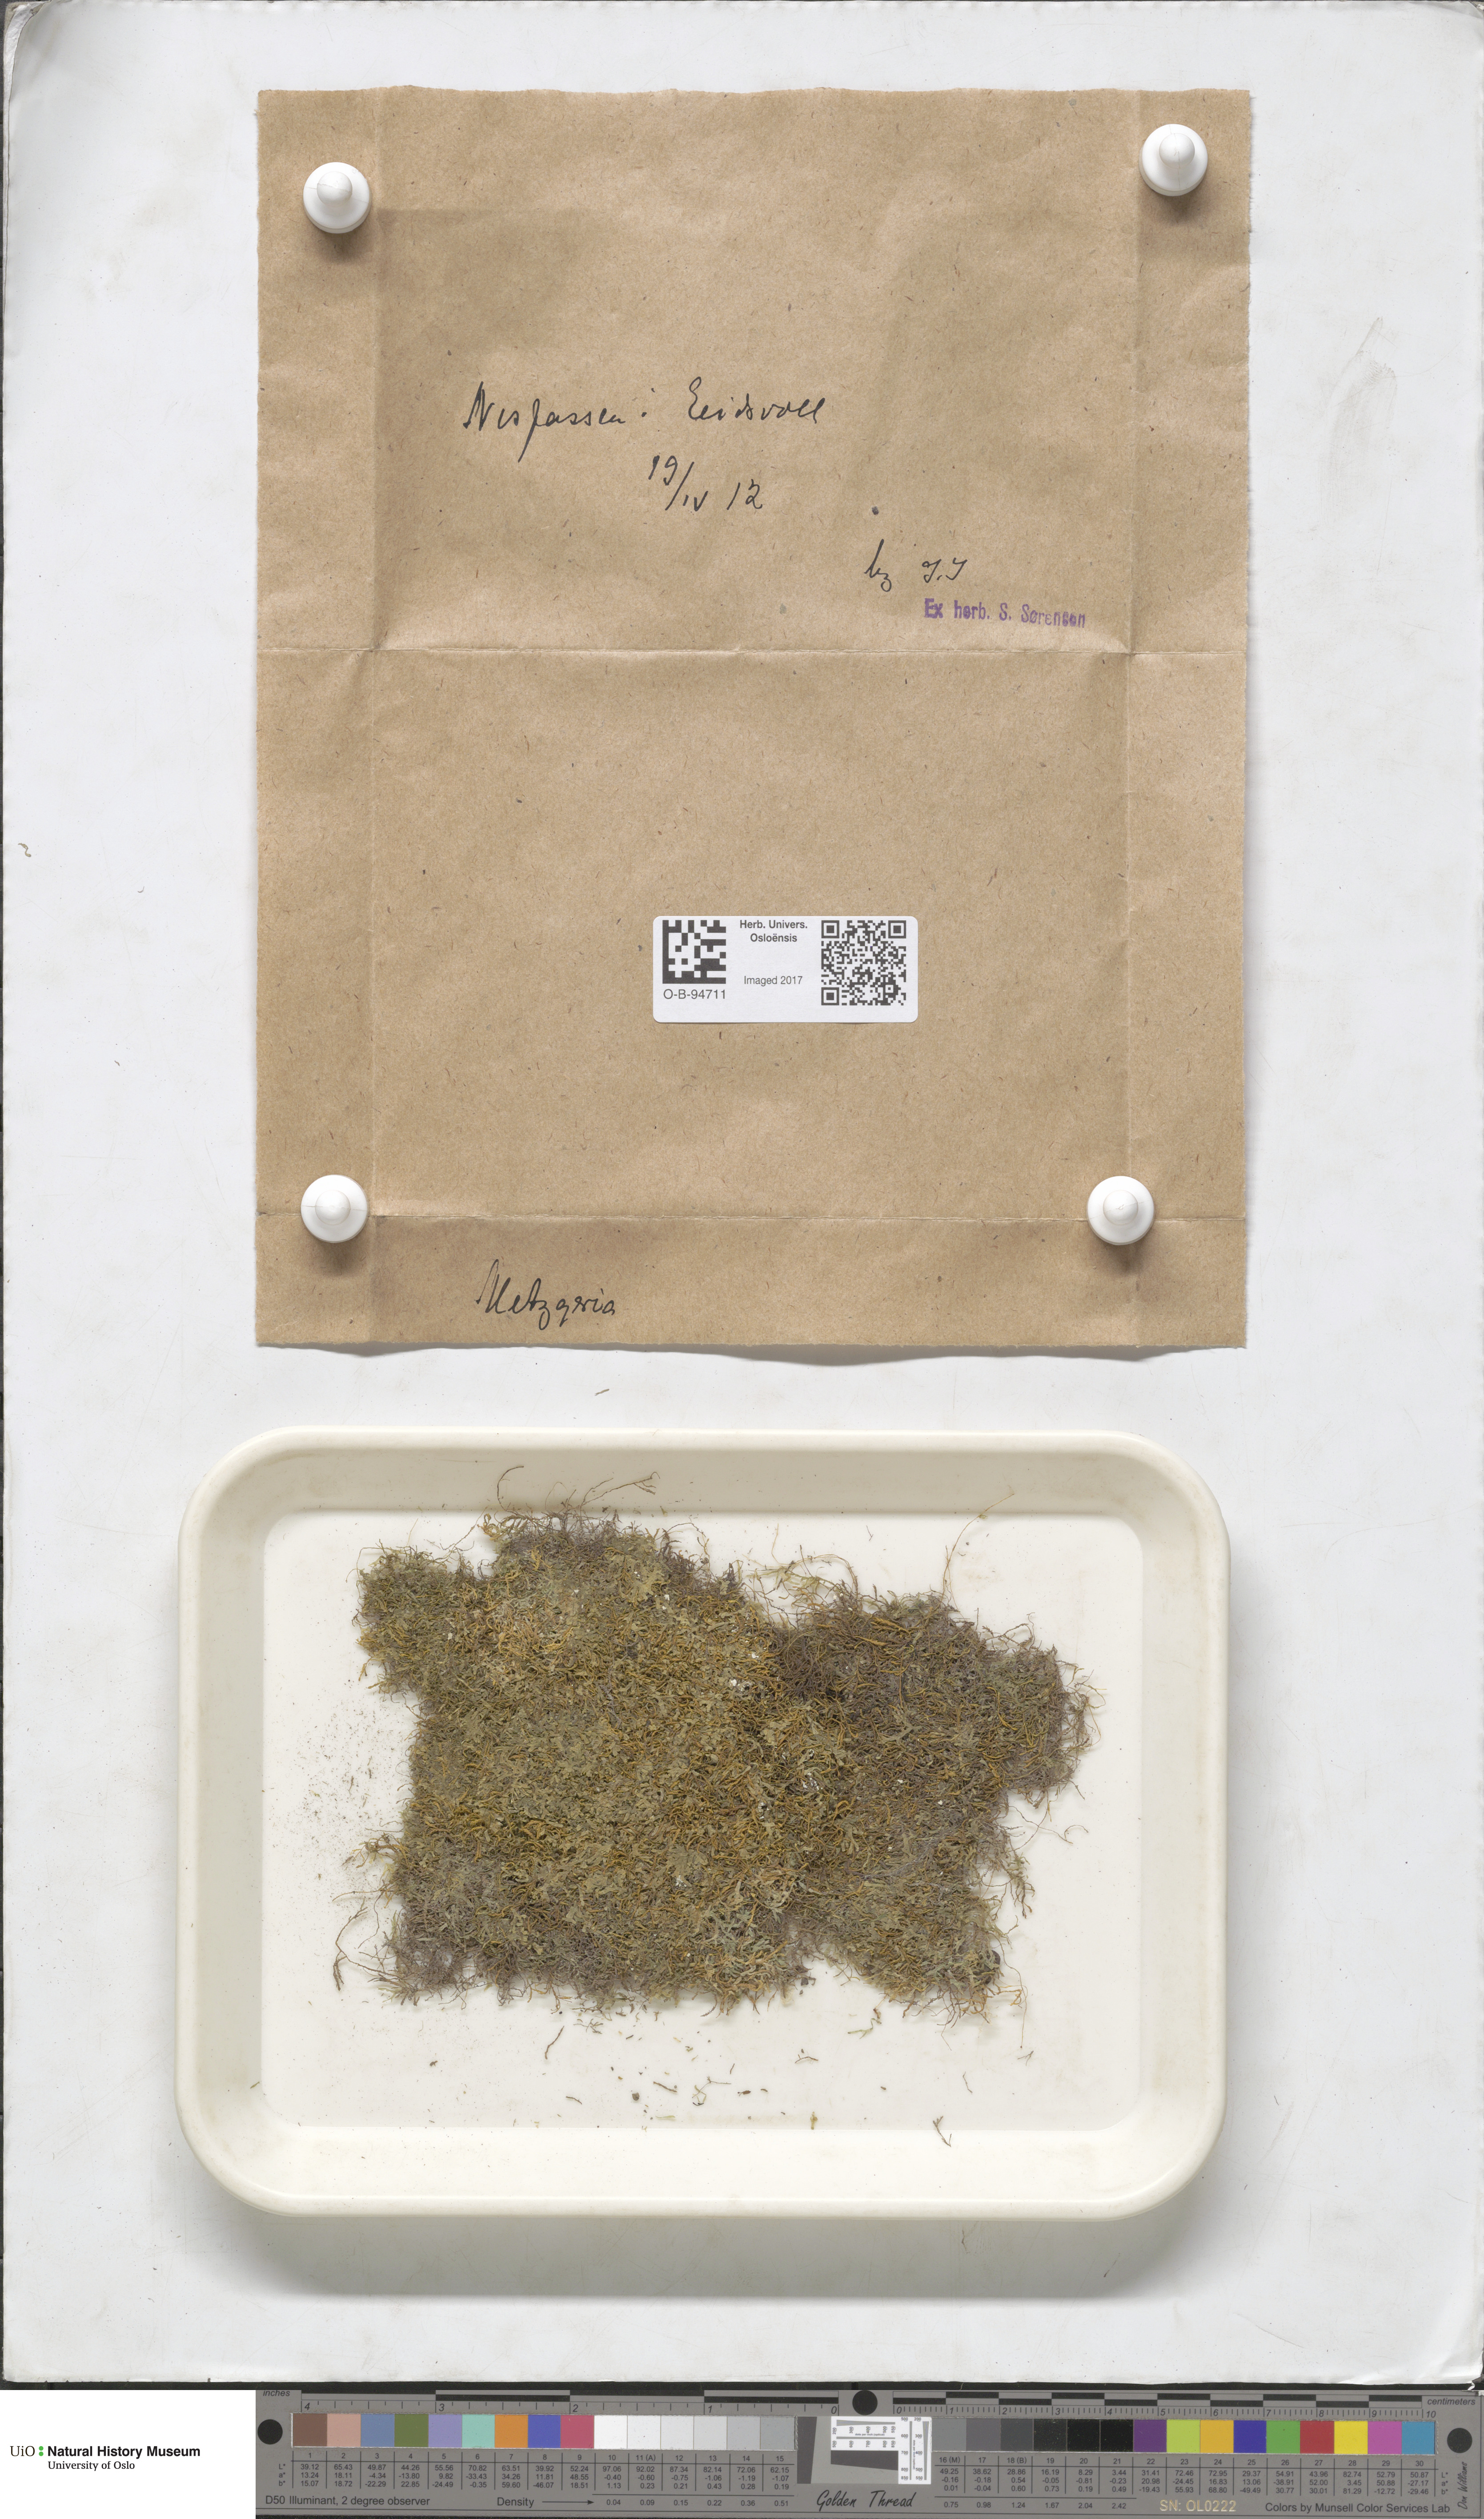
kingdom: Plantae
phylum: Marchantiophyta
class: Jungermanniopsida
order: Metzgeriales
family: Metzgeriaceae
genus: Metzgeria
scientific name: Metzgeria
